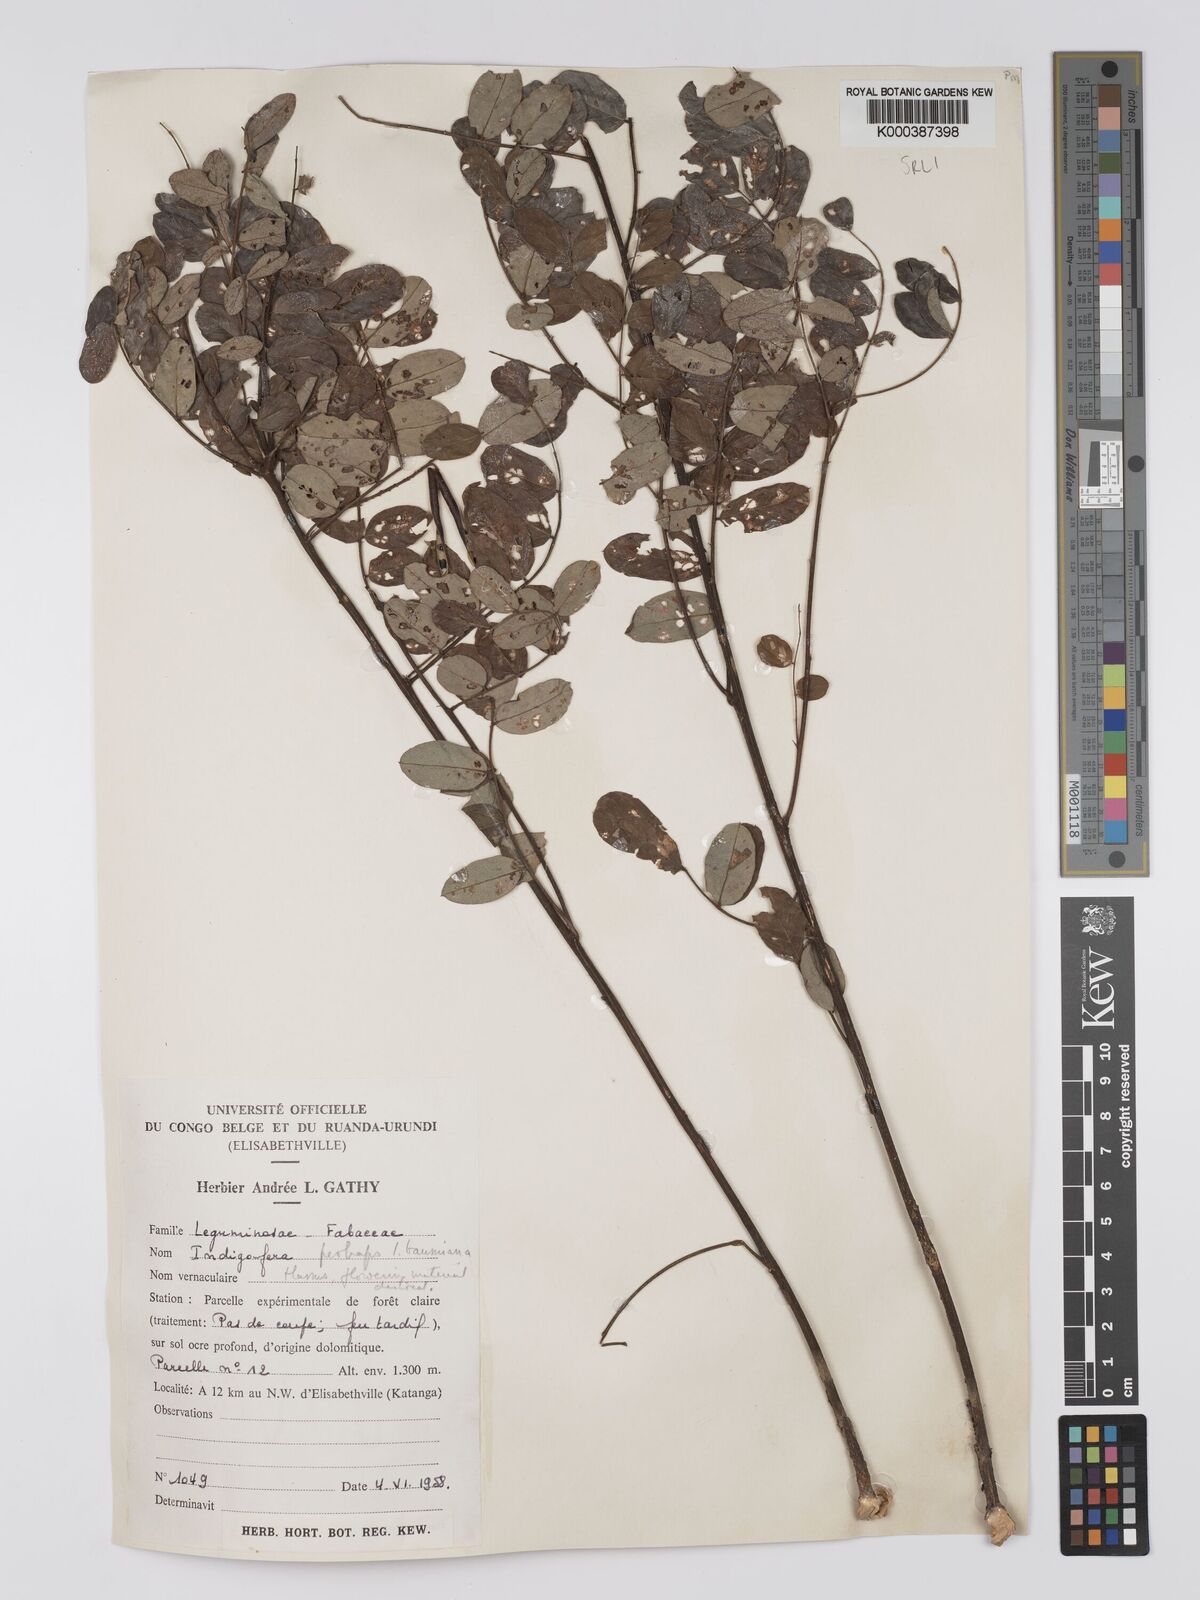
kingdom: Plantae
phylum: Tracheophyta
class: Magnoliopsida
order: Fabales
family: Fabaceae
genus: Indigofera
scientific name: Indigofera baumiana
